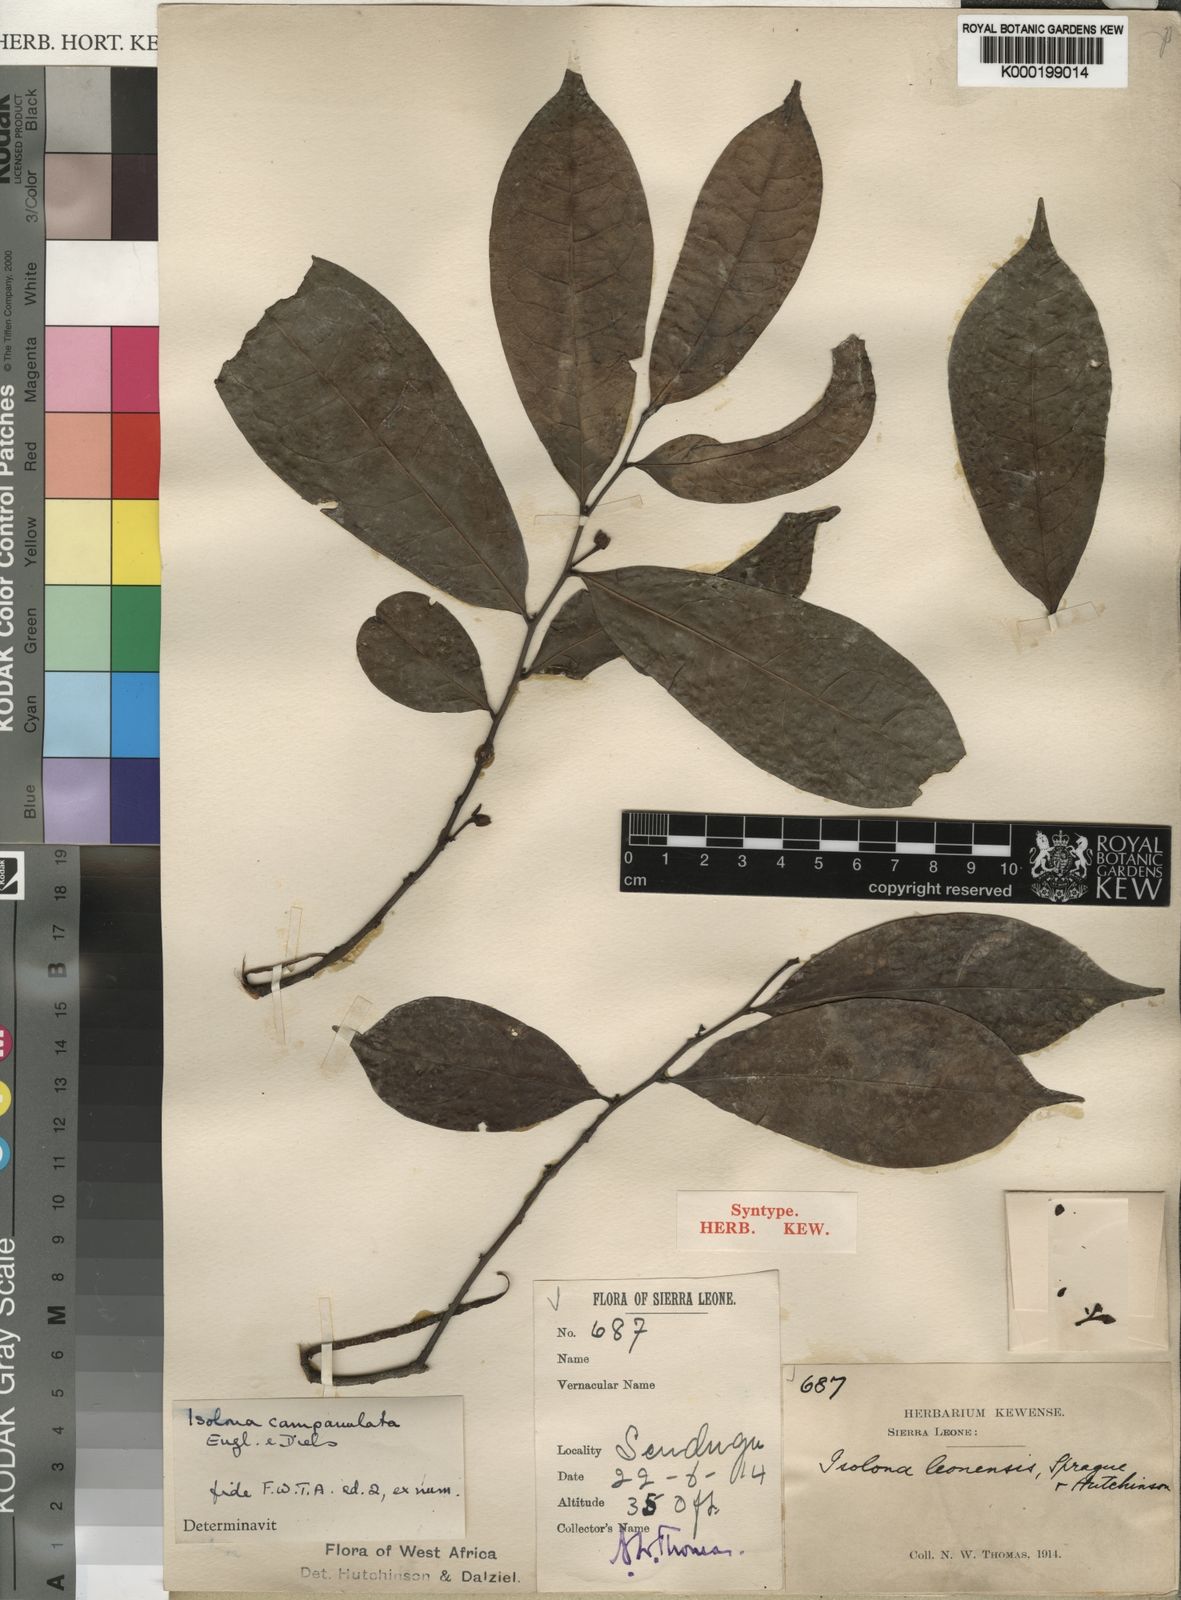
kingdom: Plantae
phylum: Tracheophyta
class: Magnoliopsida
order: Magnoliales
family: Annonaceae
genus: Isolona
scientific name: Isolona campanulata
